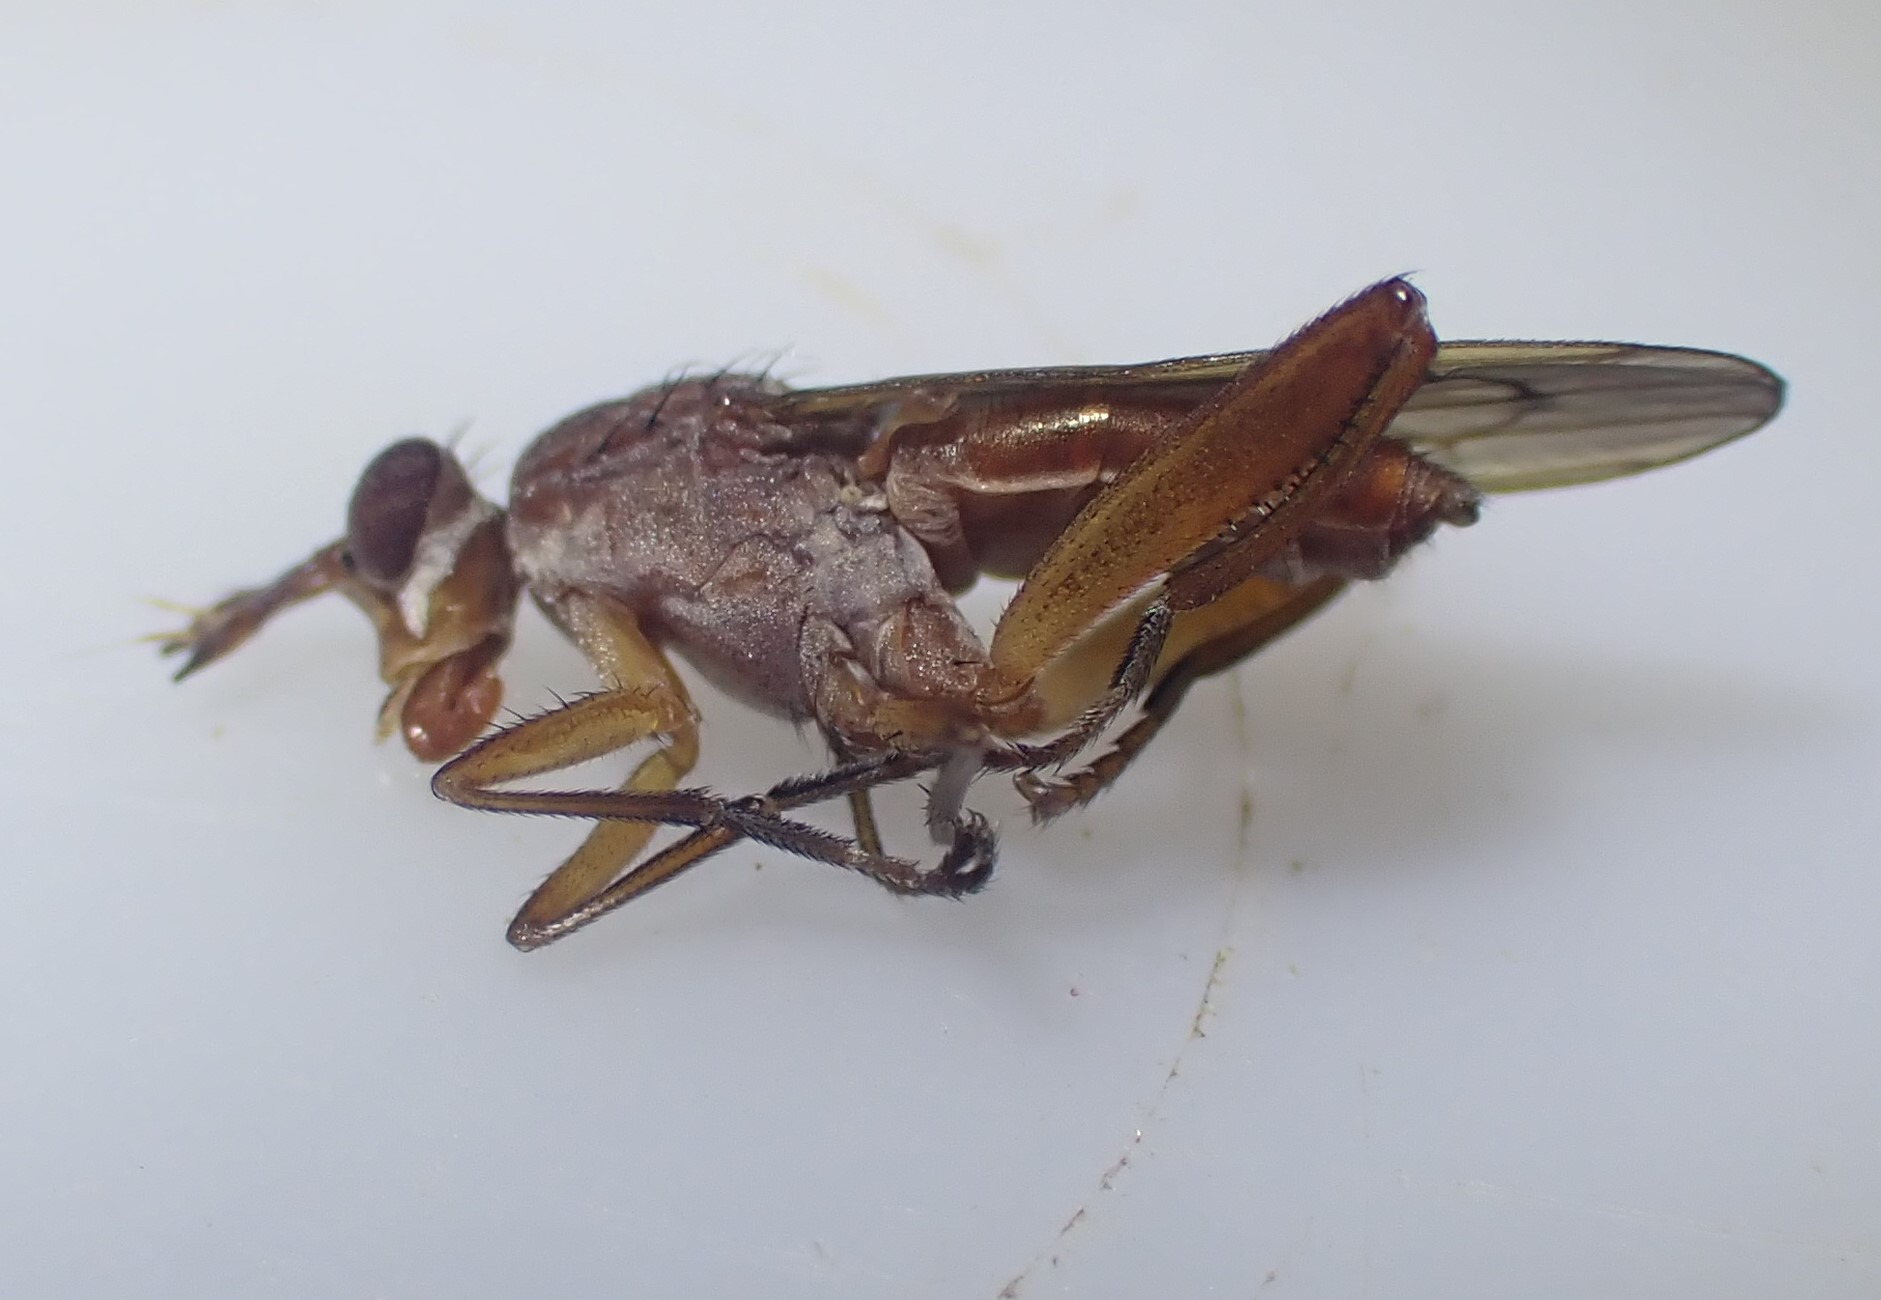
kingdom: Animalia
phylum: Arthropoda
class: Insecta
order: Diptera
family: Sciomyzidae
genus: Sepedon
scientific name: Sepedon spinipes
